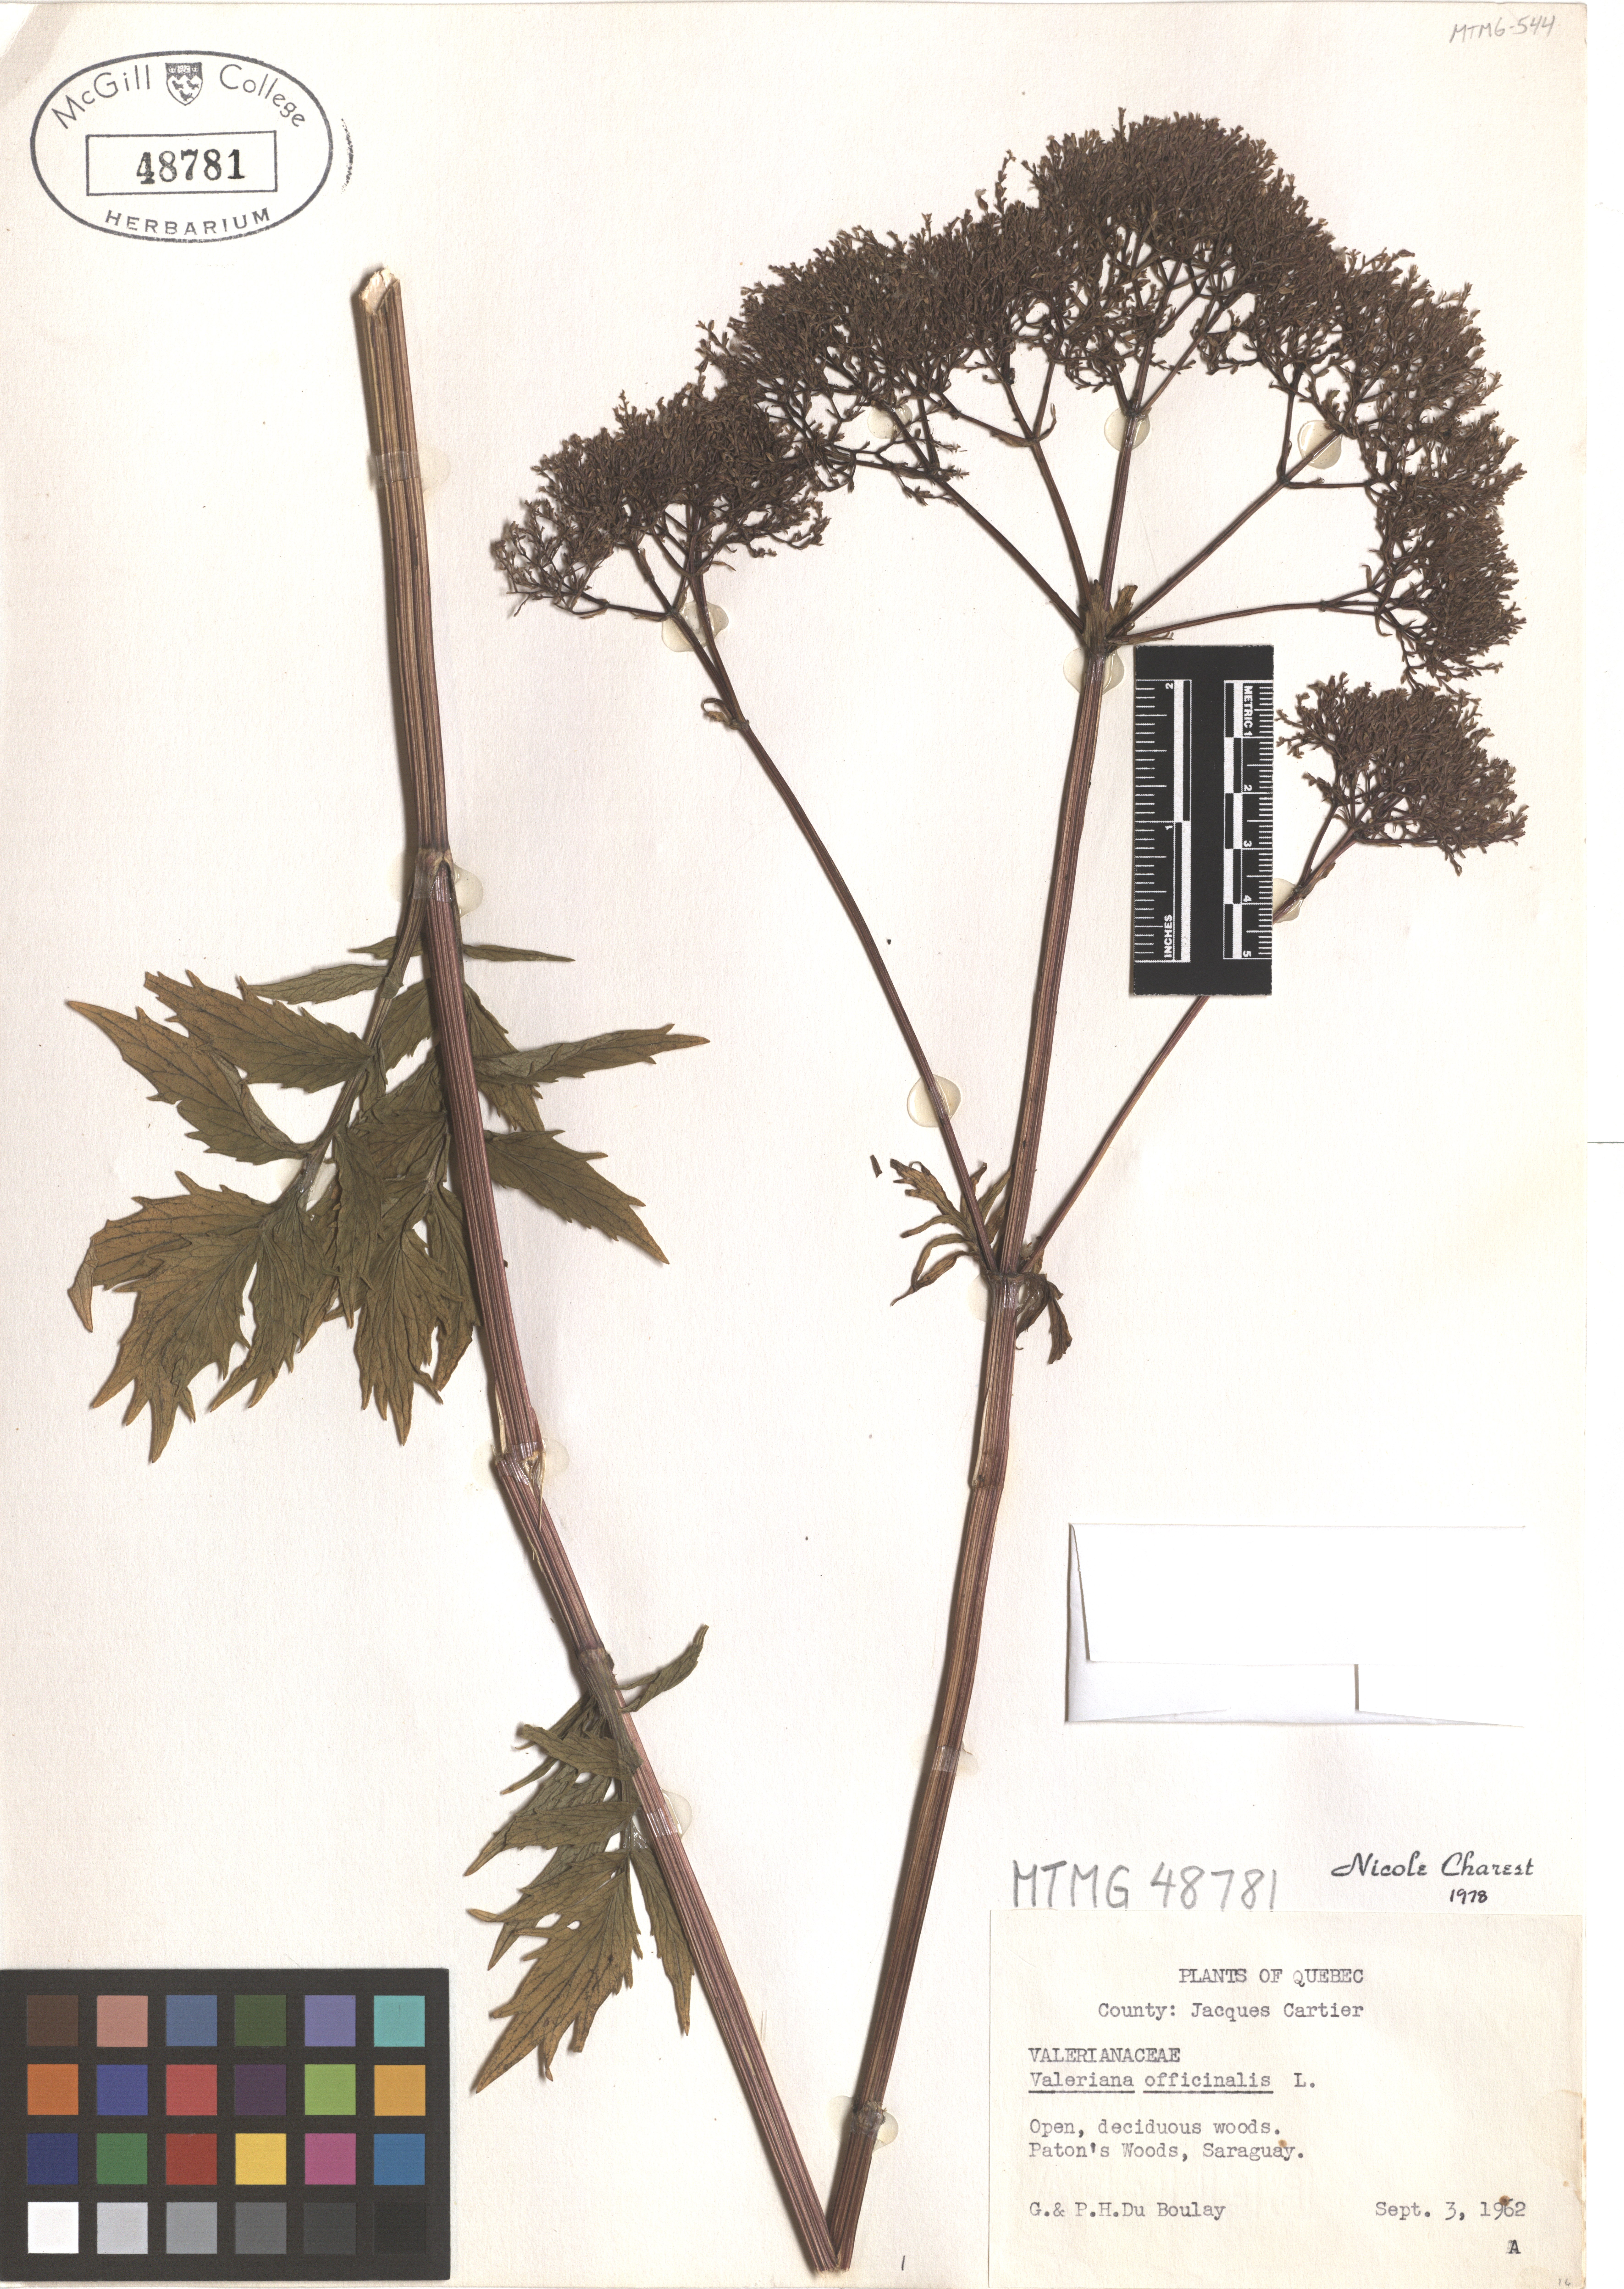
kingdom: Plantae
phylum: Tracheophyta
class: Magnoliopsida
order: Dipsacales
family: Caprifoliaceae
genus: Valeriana
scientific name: Valeriana officinalis
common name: Common valerian
